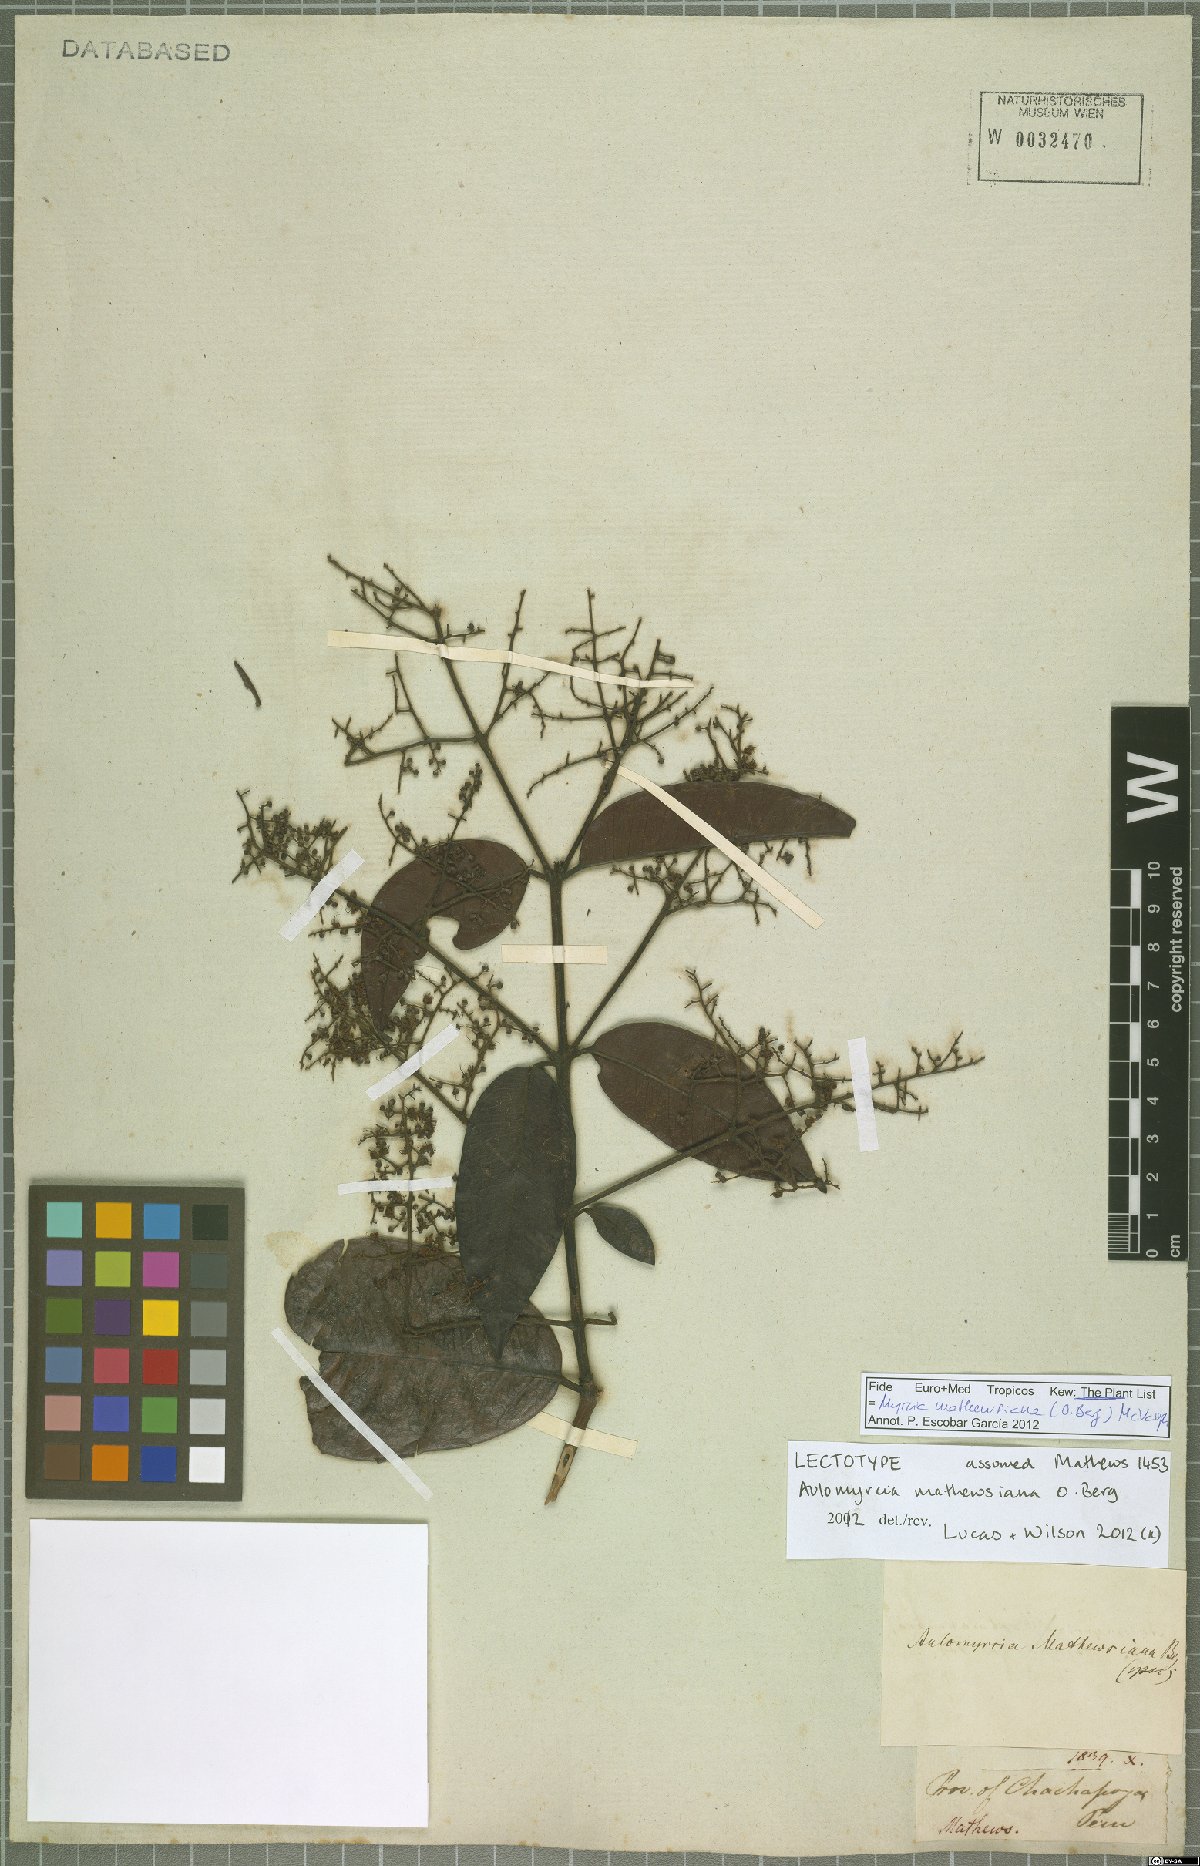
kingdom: Plantae
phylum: Tracheophyta
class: Magnoliopsida
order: Myrtales
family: Myrtaceae
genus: Myrcia
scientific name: Myrcia mathewsiana
